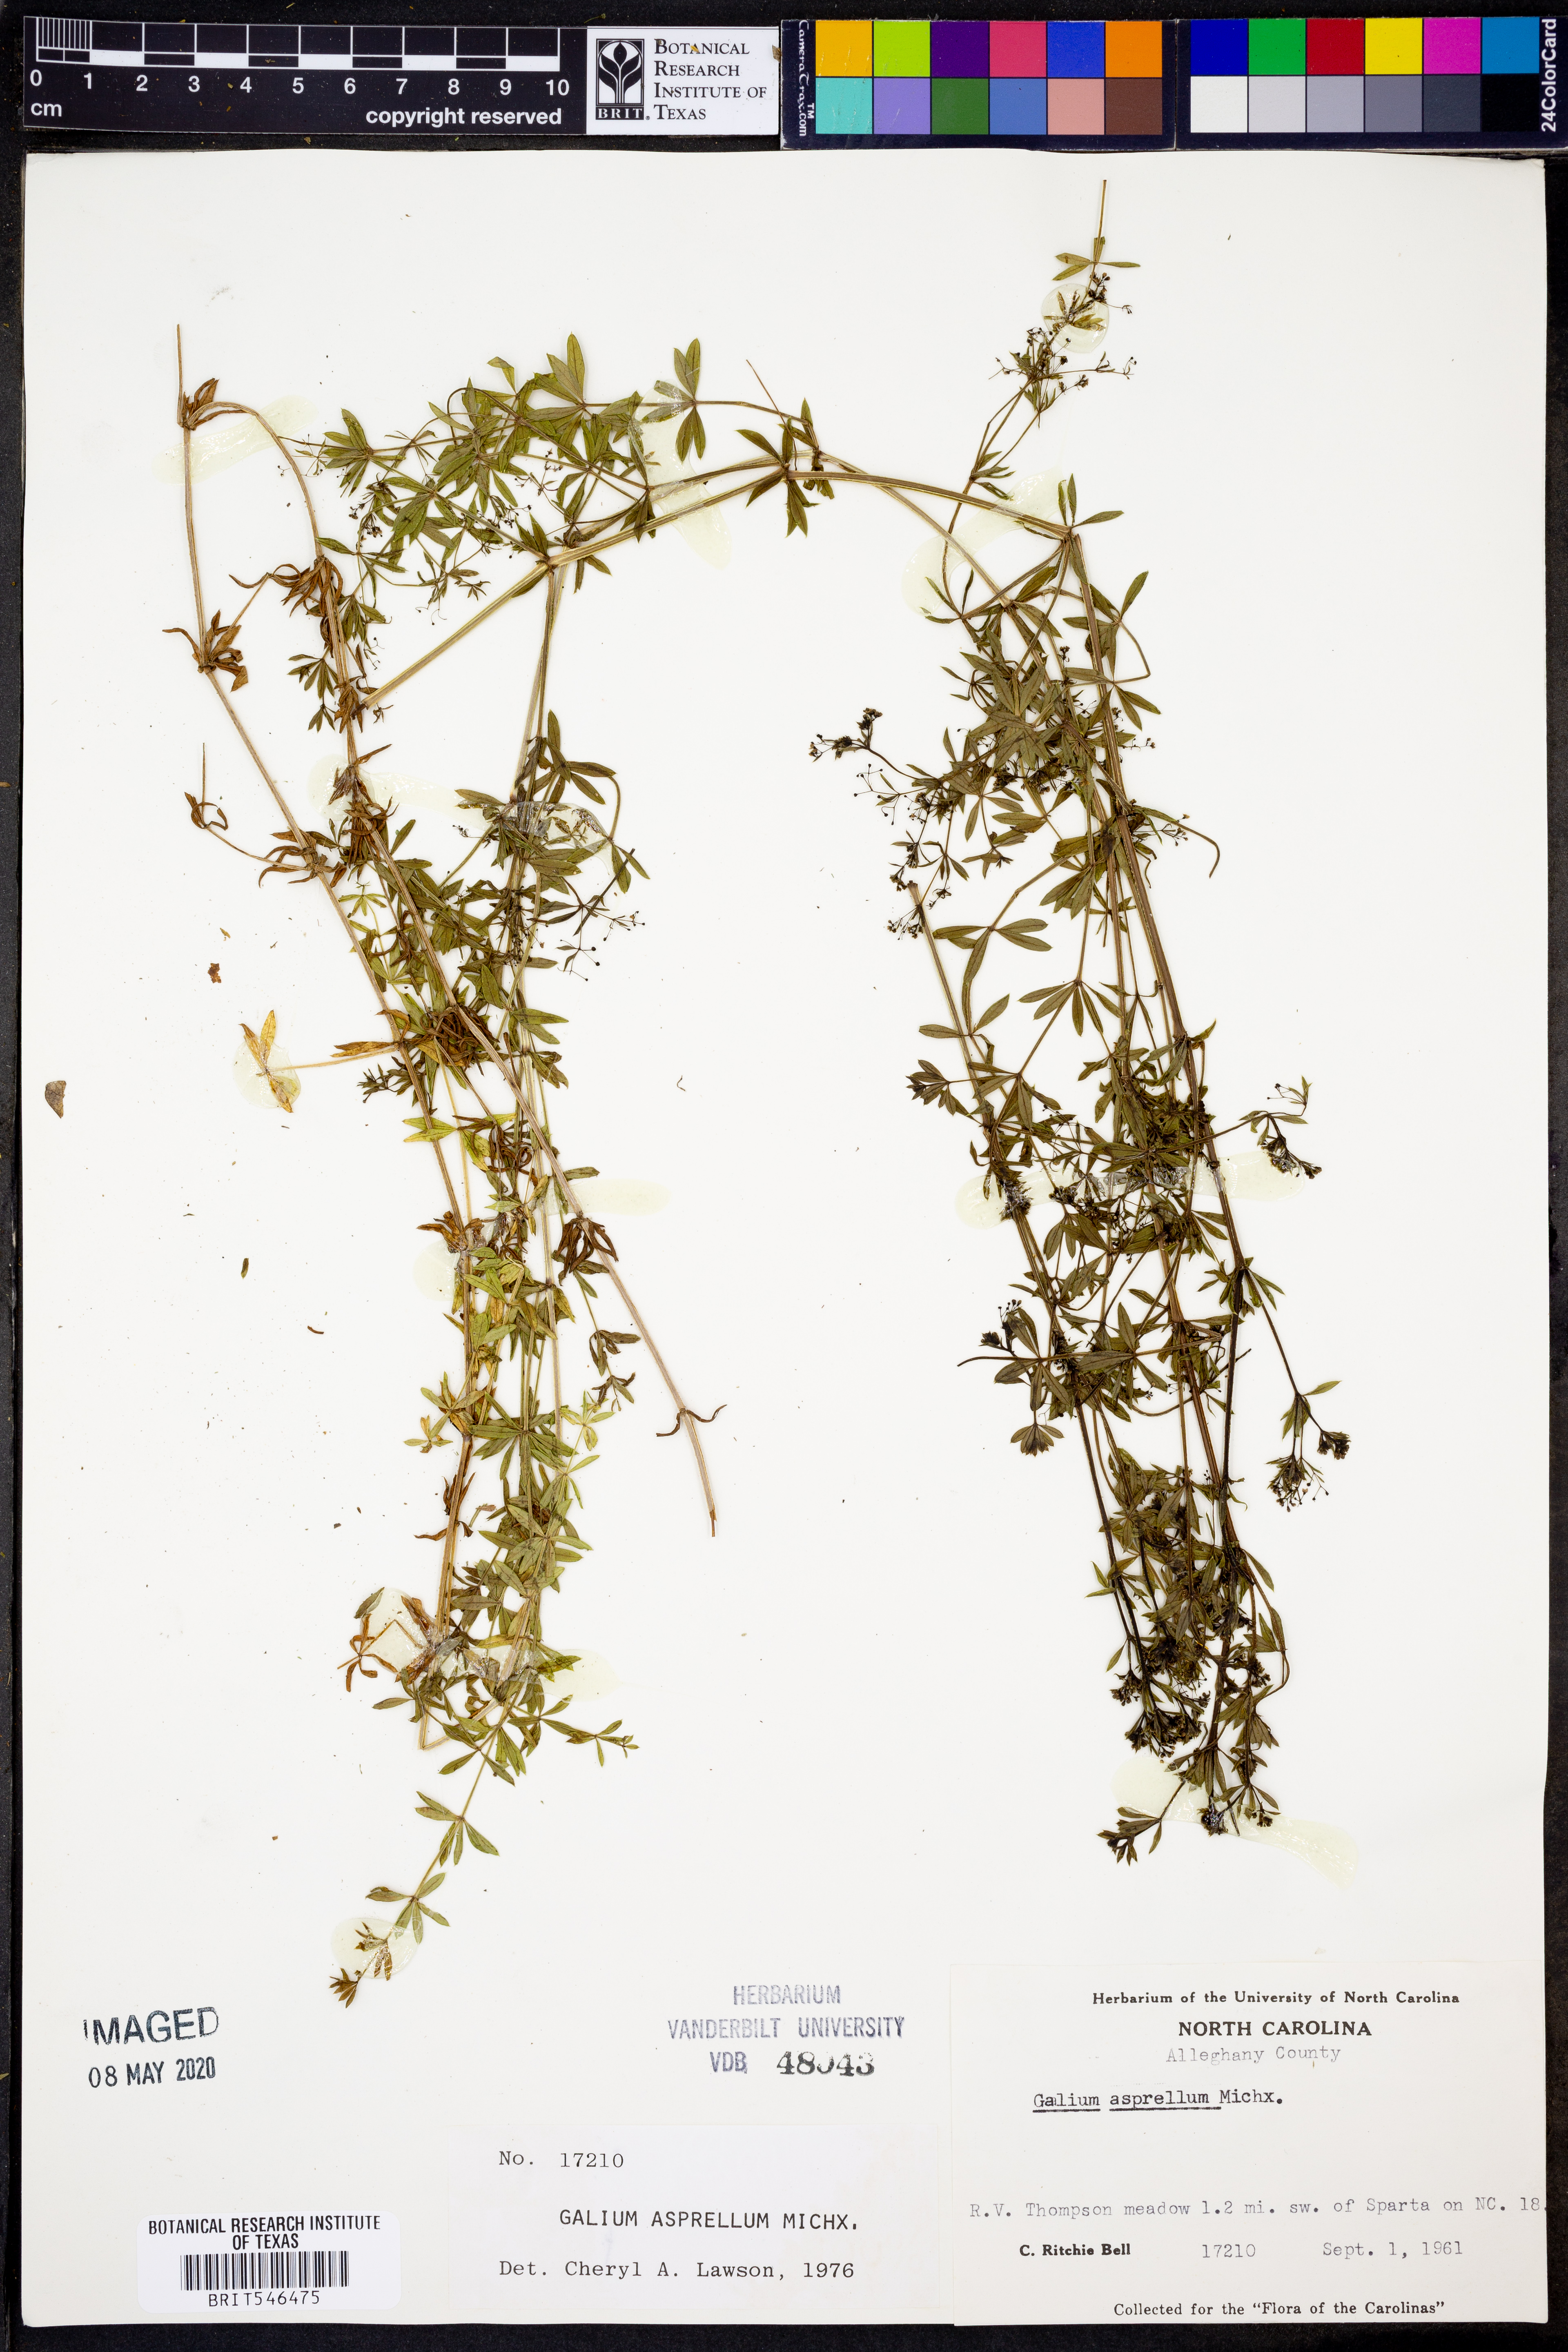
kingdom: Plantae
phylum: Tracheophyta
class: Magnoliopsida
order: Gentianales
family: Rubiaceae
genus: Galium
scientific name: Galium asprellum
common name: Rough bedstraw
